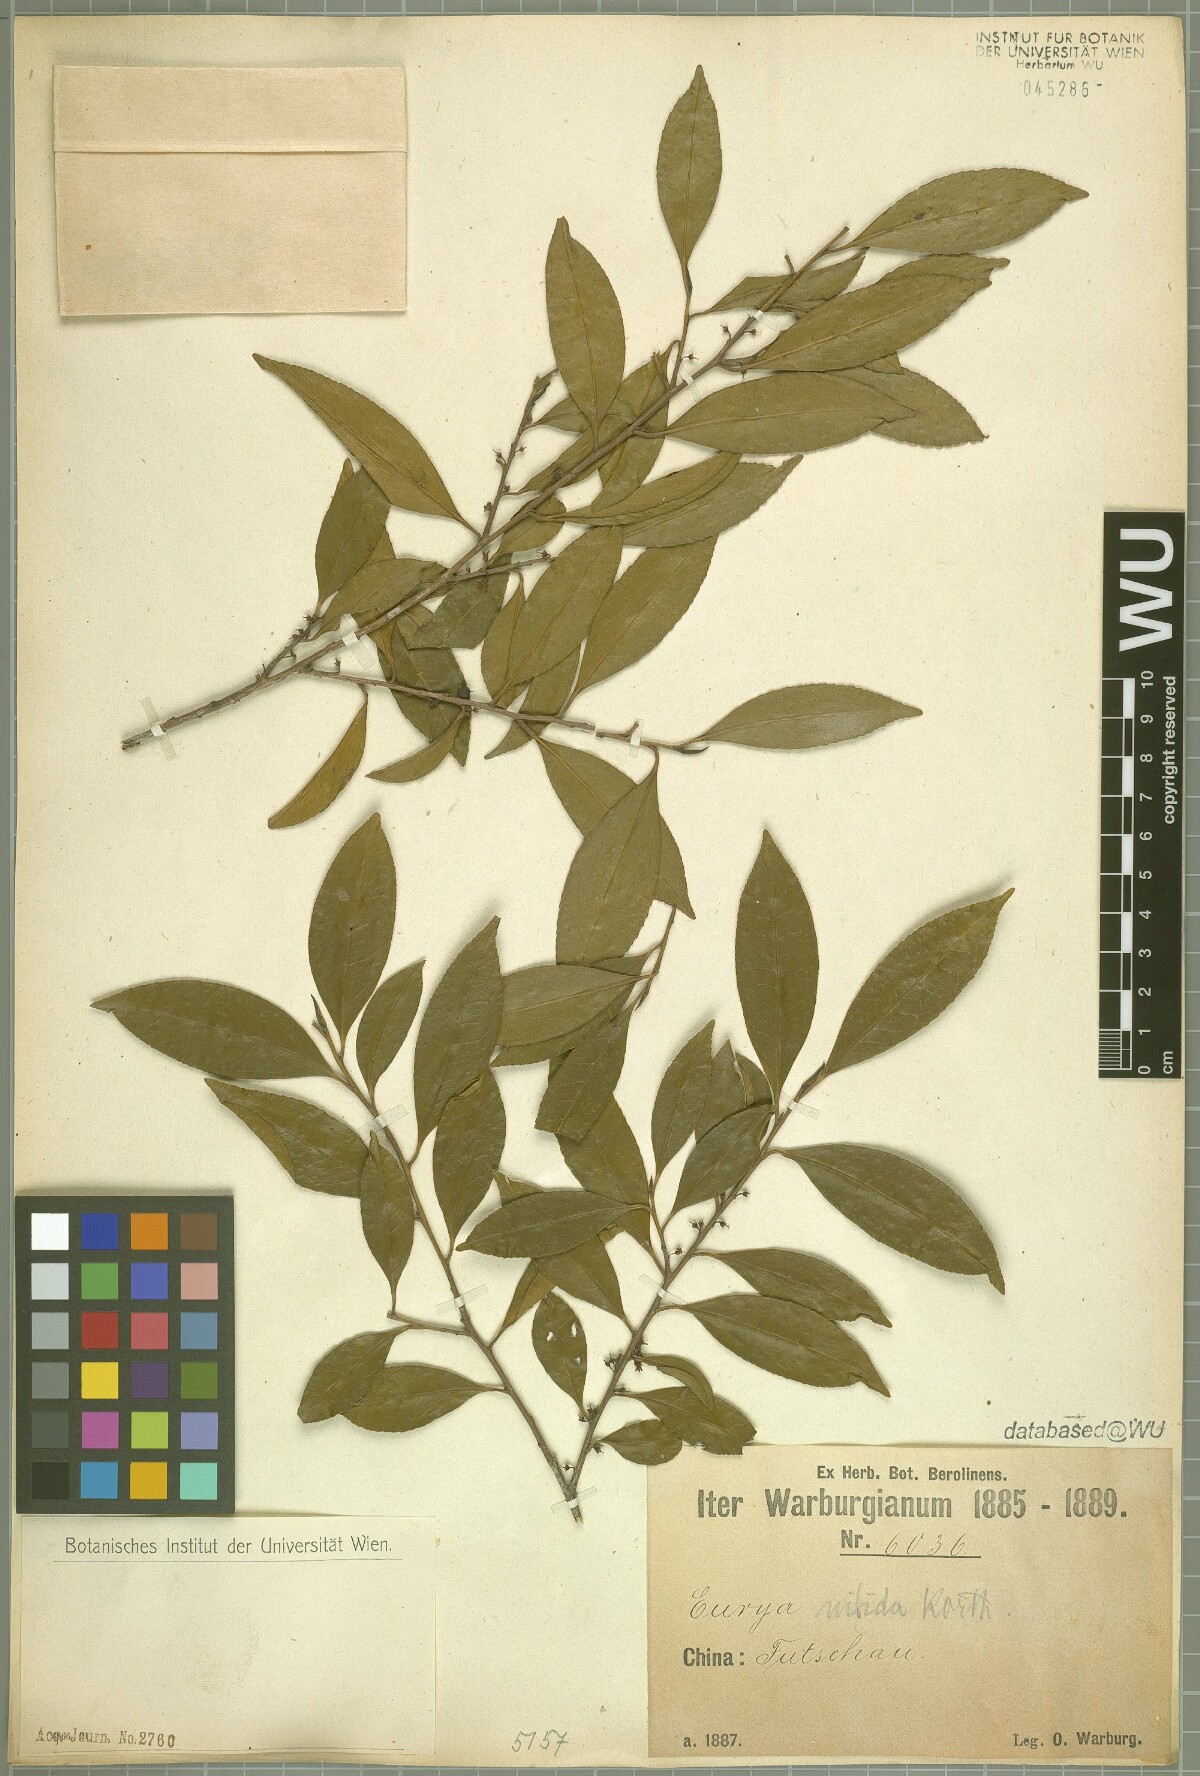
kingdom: Plantae
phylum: Tracheophyta
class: Magnoliopsida
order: Ericales
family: Pentaphylacaceae
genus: Eurya
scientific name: Eurya nitida
